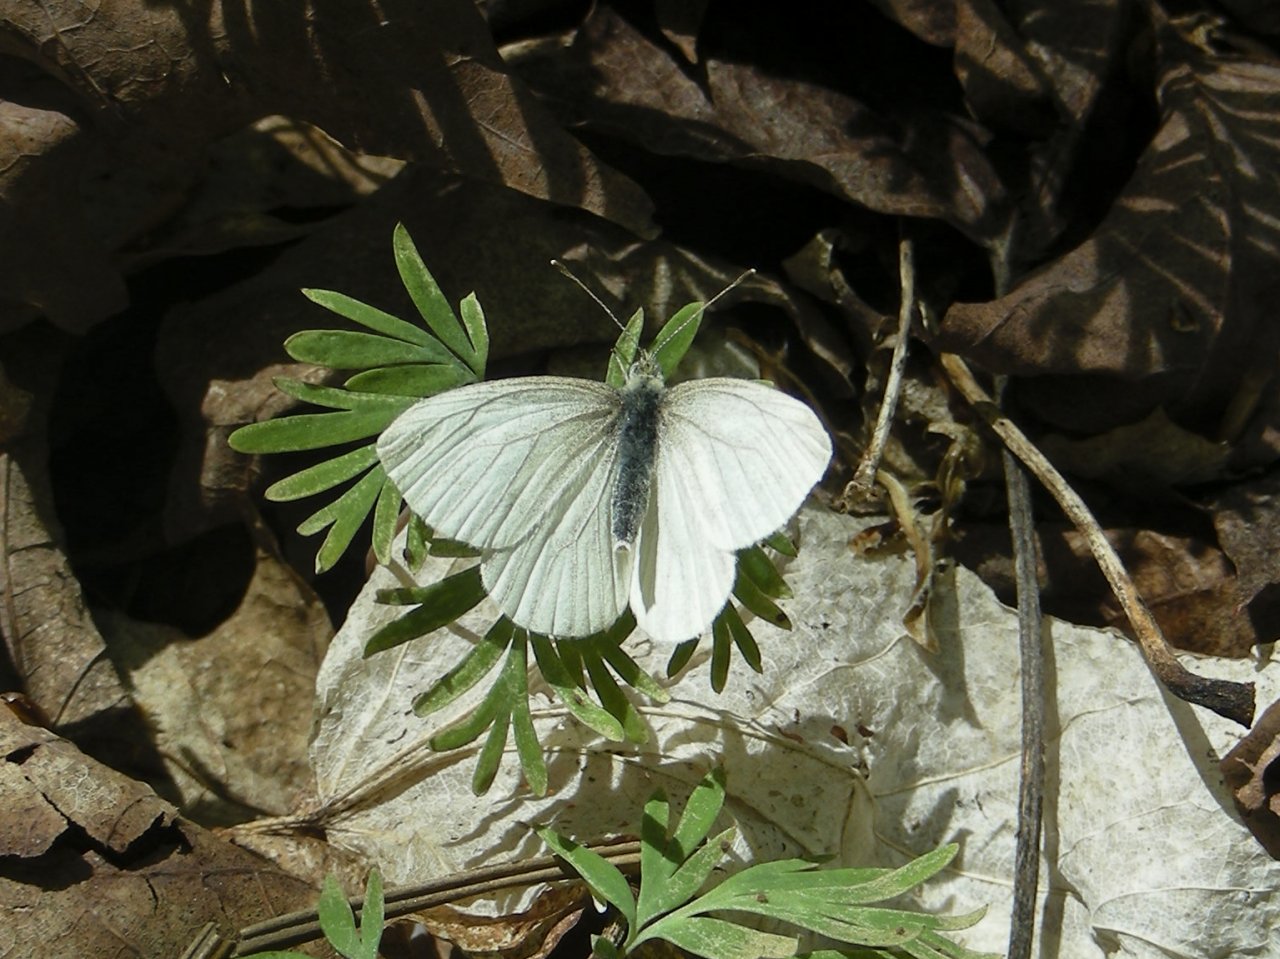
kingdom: Animalia
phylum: Arthropoda
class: Insecta
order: Lepidoptera
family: Pieridae
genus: Pieris
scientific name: Pieris virginiensis
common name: West Virginia White
